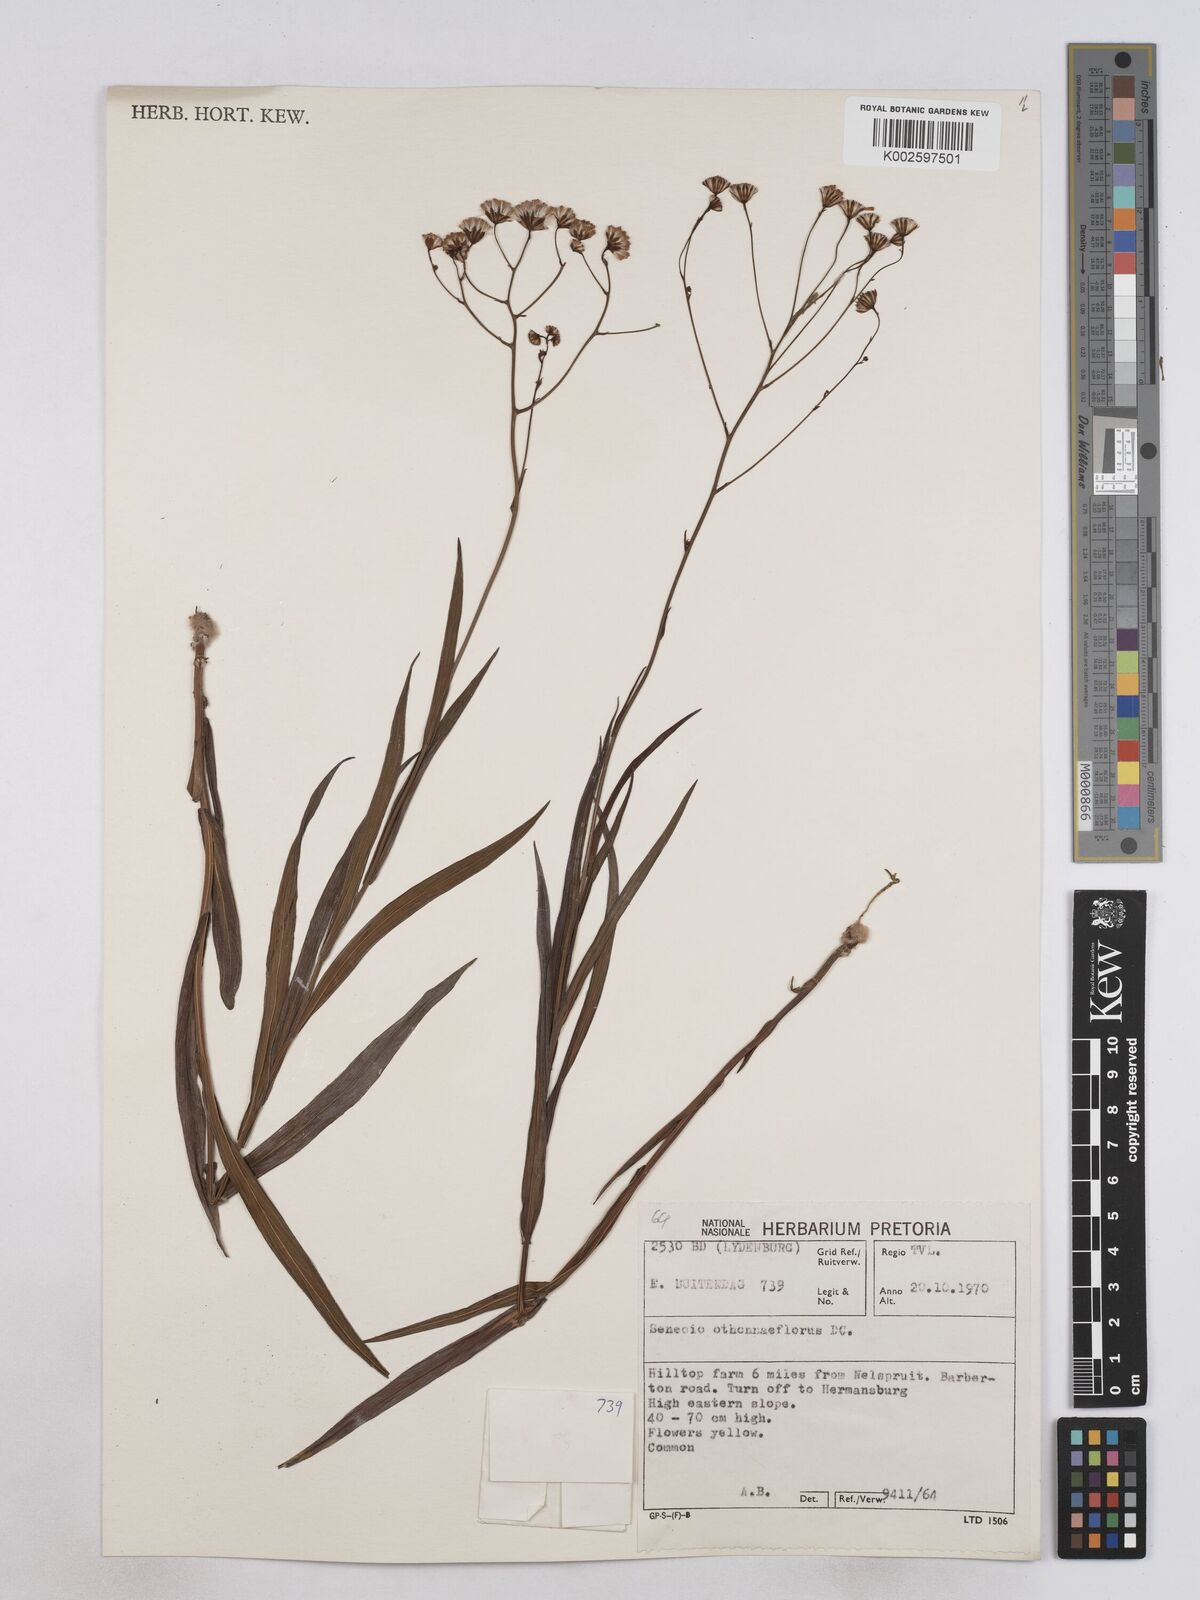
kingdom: Plantae
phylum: Tracheophyta
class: Magnoliopsida
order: Asterales
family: Asteraceae
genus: Senecio
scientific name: Senecio othonniflorus
